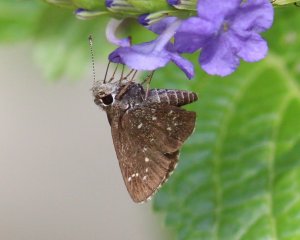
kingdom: Animalia
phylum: Arthropoda
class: Insecta
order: Lepidoptera
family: Hesperiidae
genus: Mastor
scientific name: Mastor celia
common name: Celia's Roadside-Skipper
